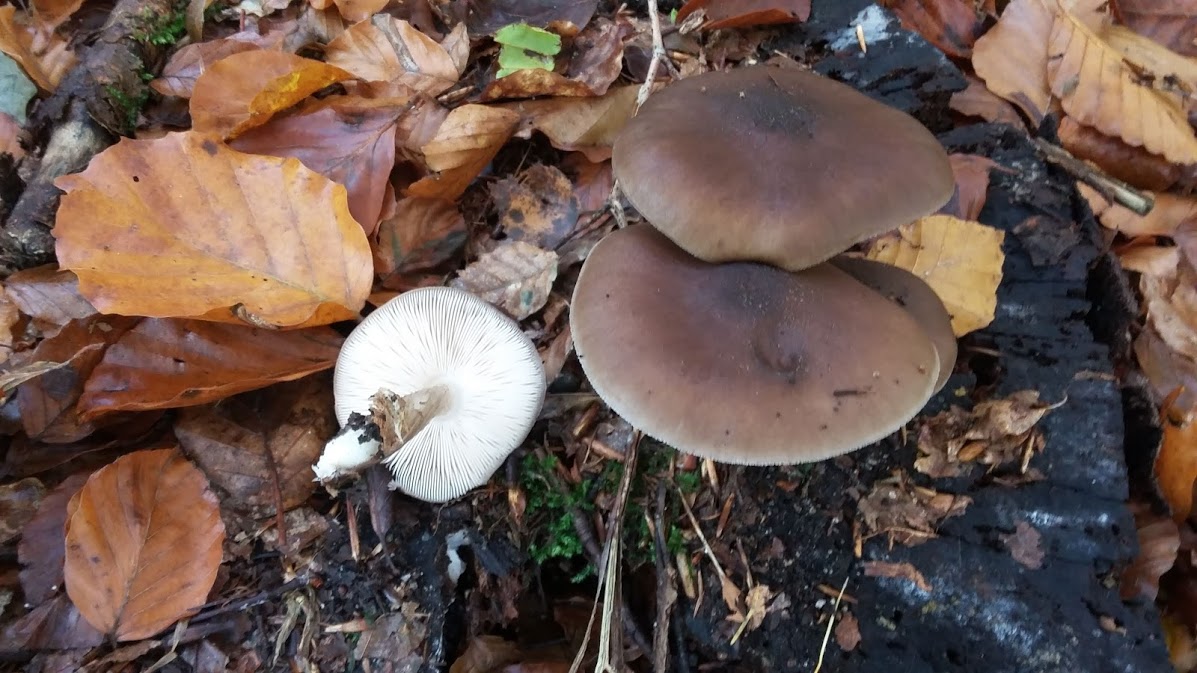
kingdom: Fungi
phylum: Basidiomycota
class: Agaricomycetes
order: Agaricales
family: Pluteaceae
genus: Pluteus
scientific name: Pluteus cervinus
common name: sodfarvet skærmhat
